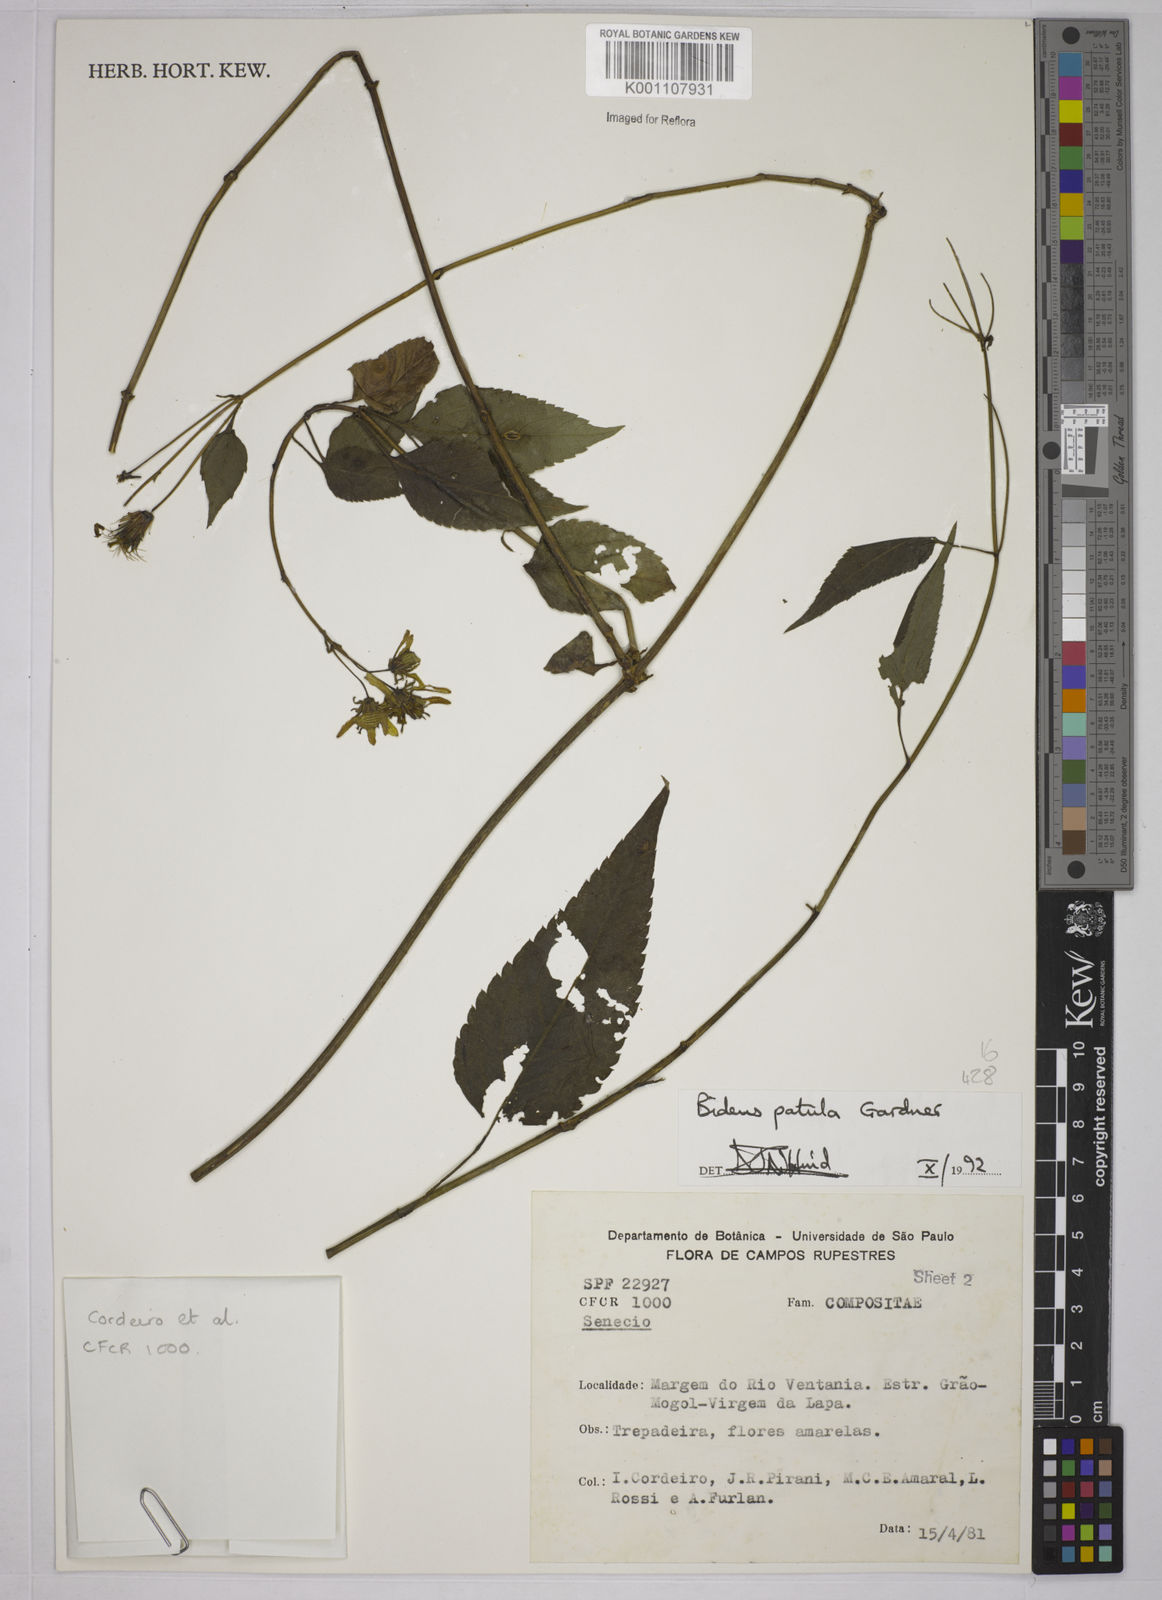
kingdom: Plantae
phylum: Tracheophyta
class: Magnoliopsida
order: Asterales
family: Asteraceae
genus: Bidens
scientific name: Bidens segetum
